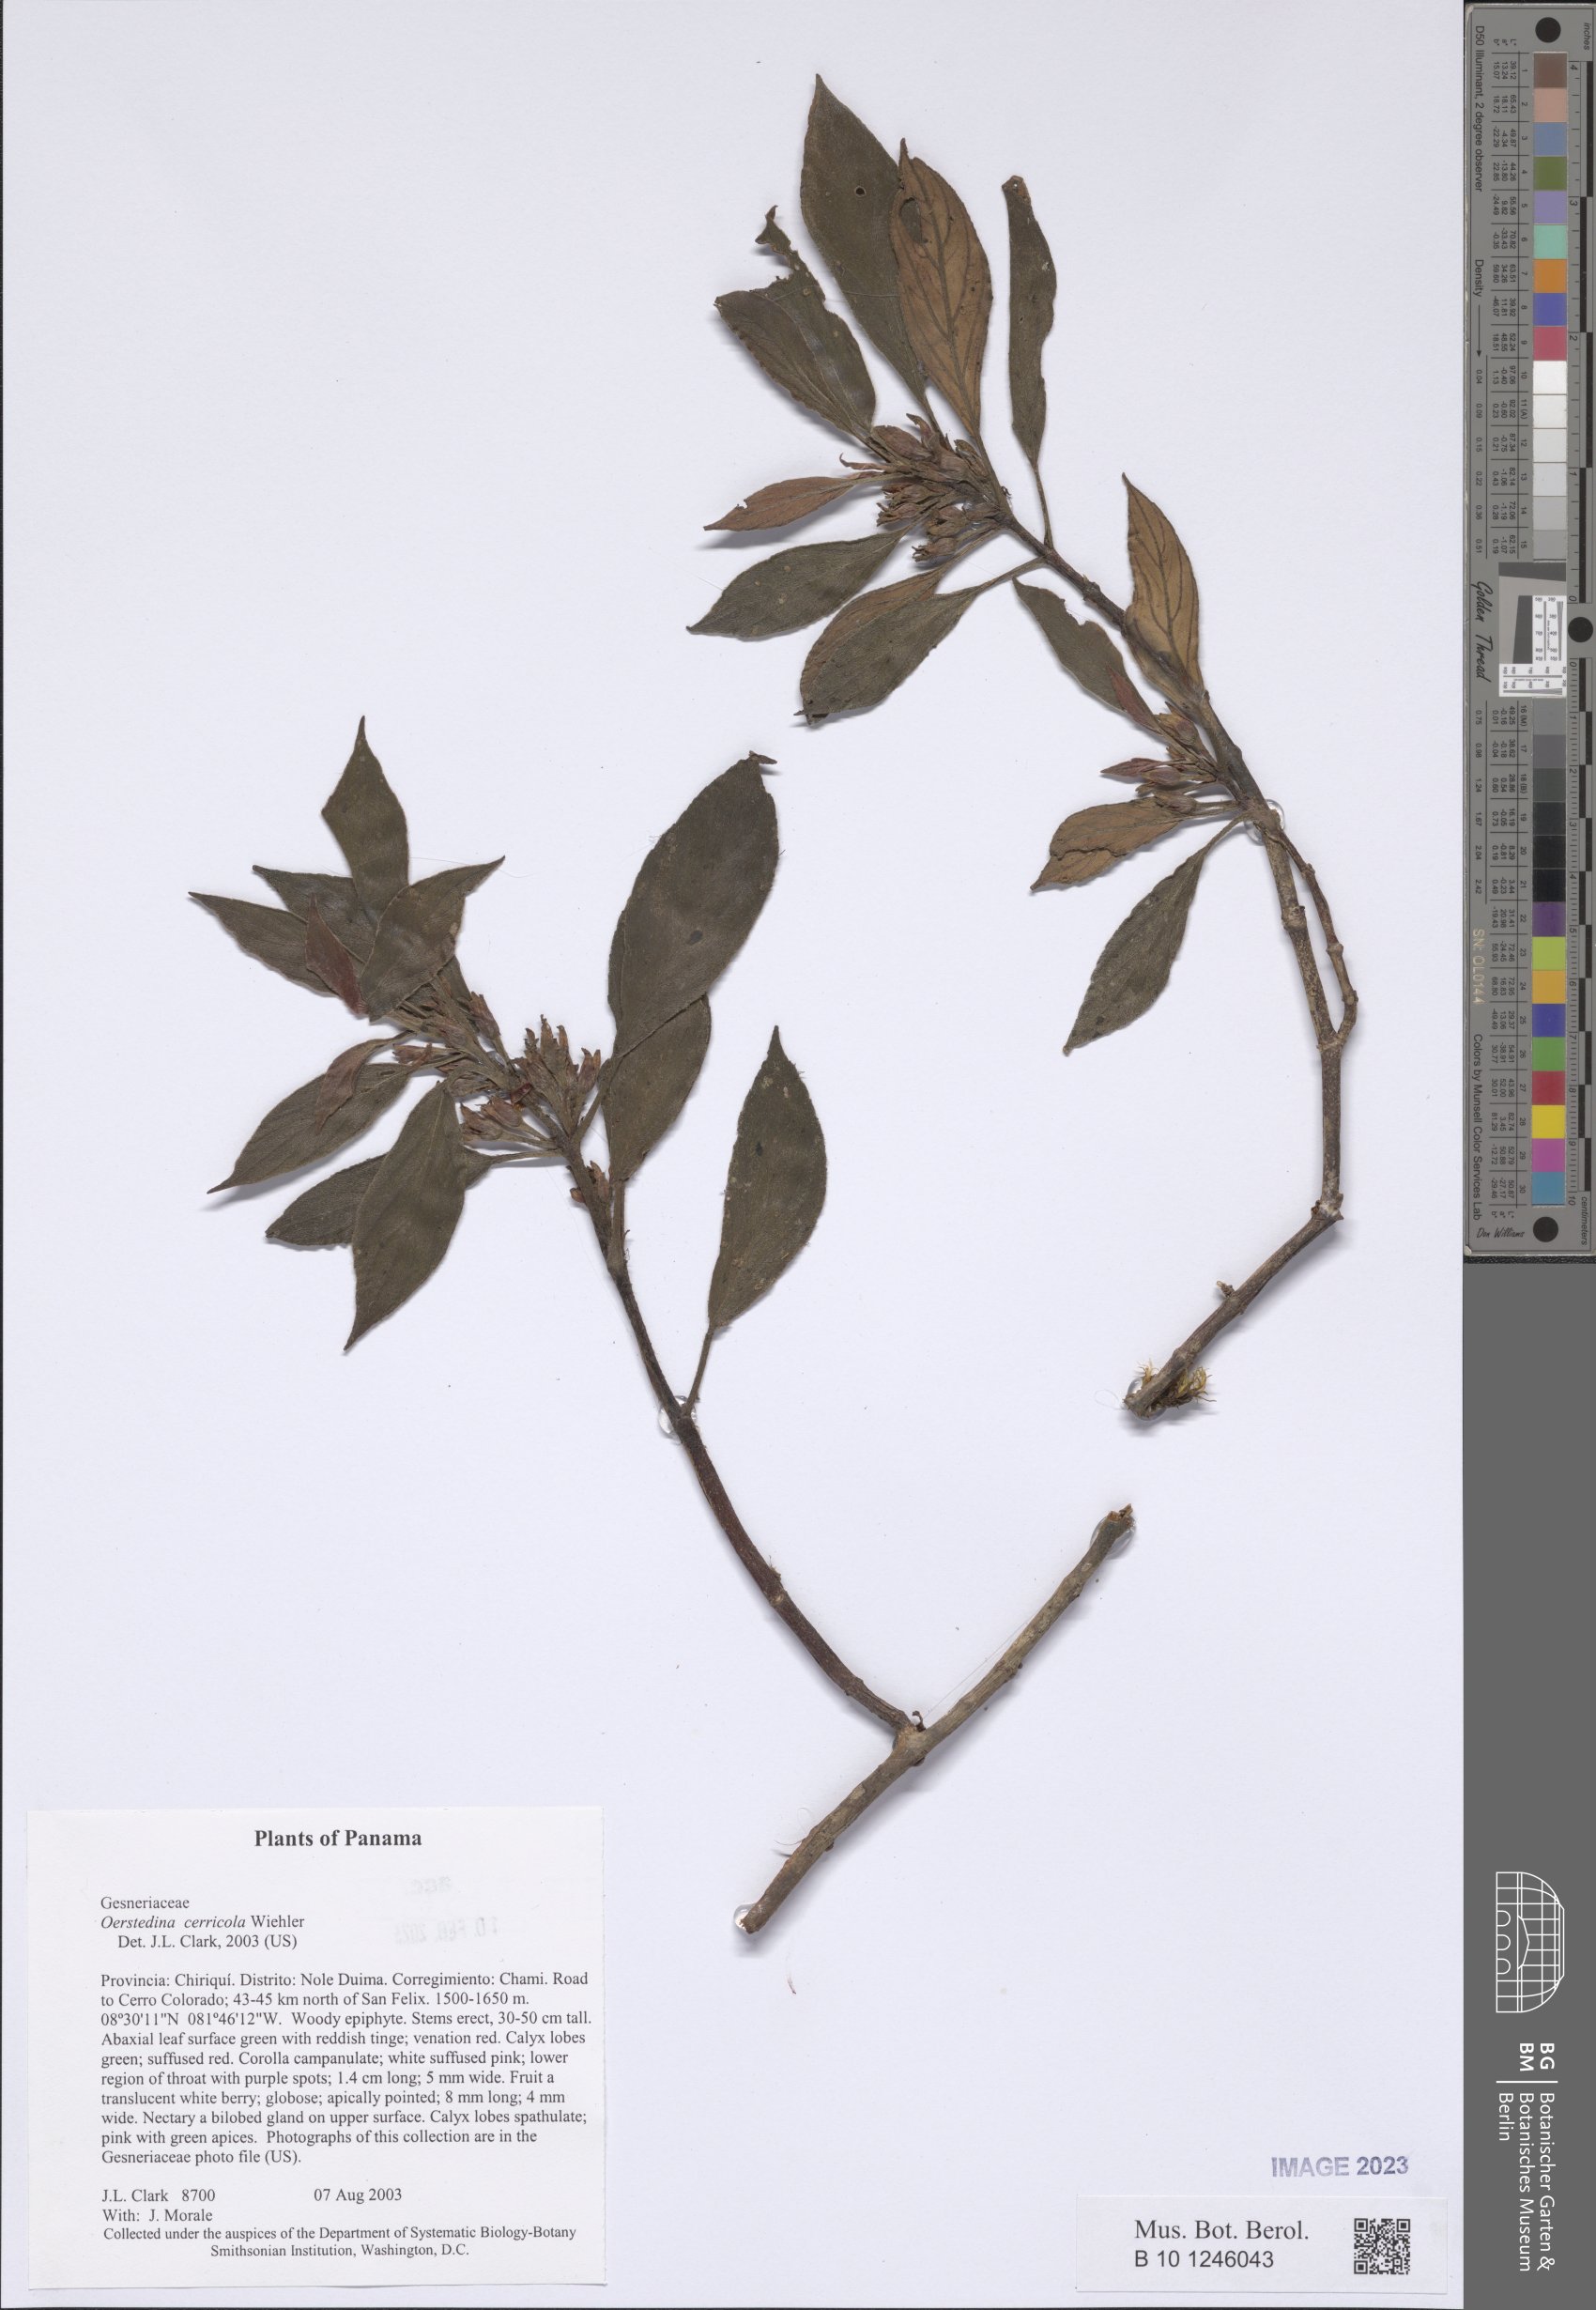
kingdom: Plantae
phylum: Tracheophyta
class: Magnoliopsida
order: Lamiales
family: Gesneriaceae
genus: Rufodorsia
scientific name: Rufodorsia cerricola
